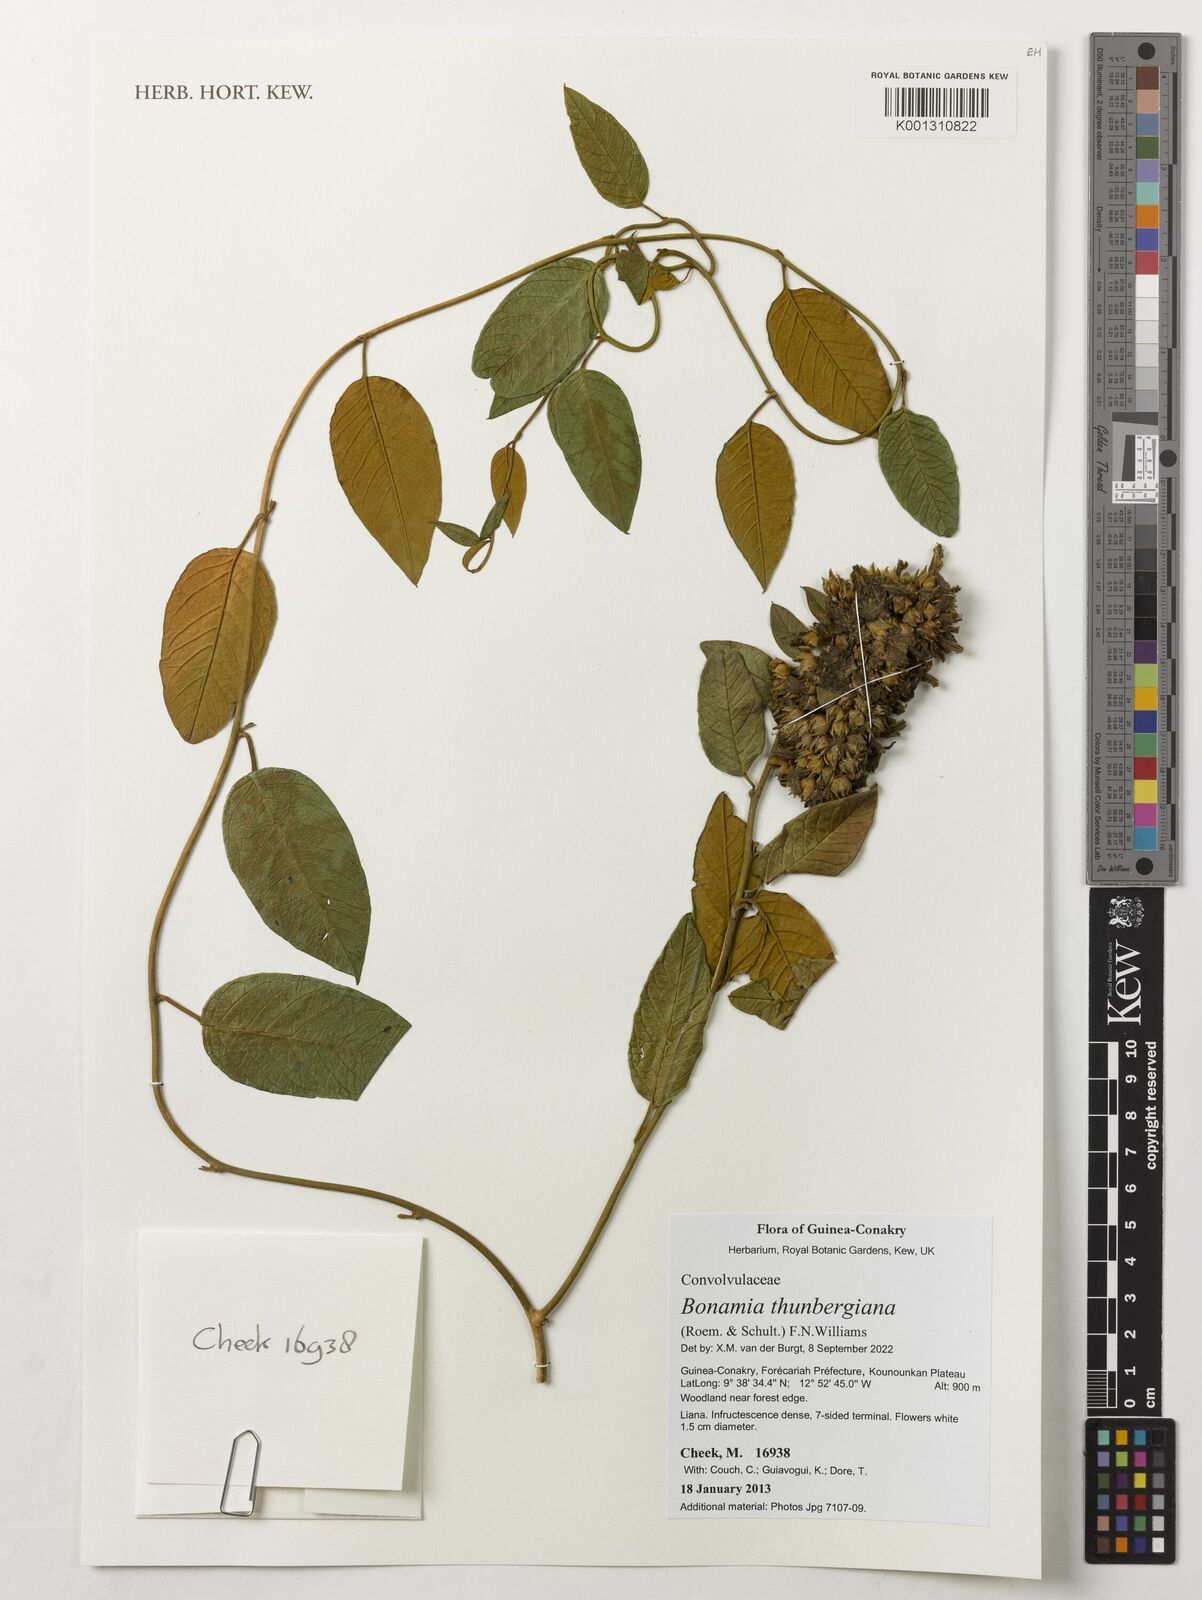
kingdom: Plantae
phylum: Tracheophyta
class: Magnoliopsida
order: Solanales
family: Convolvulaceae
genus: Bonamia
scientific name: Bonamia thunbergiana
